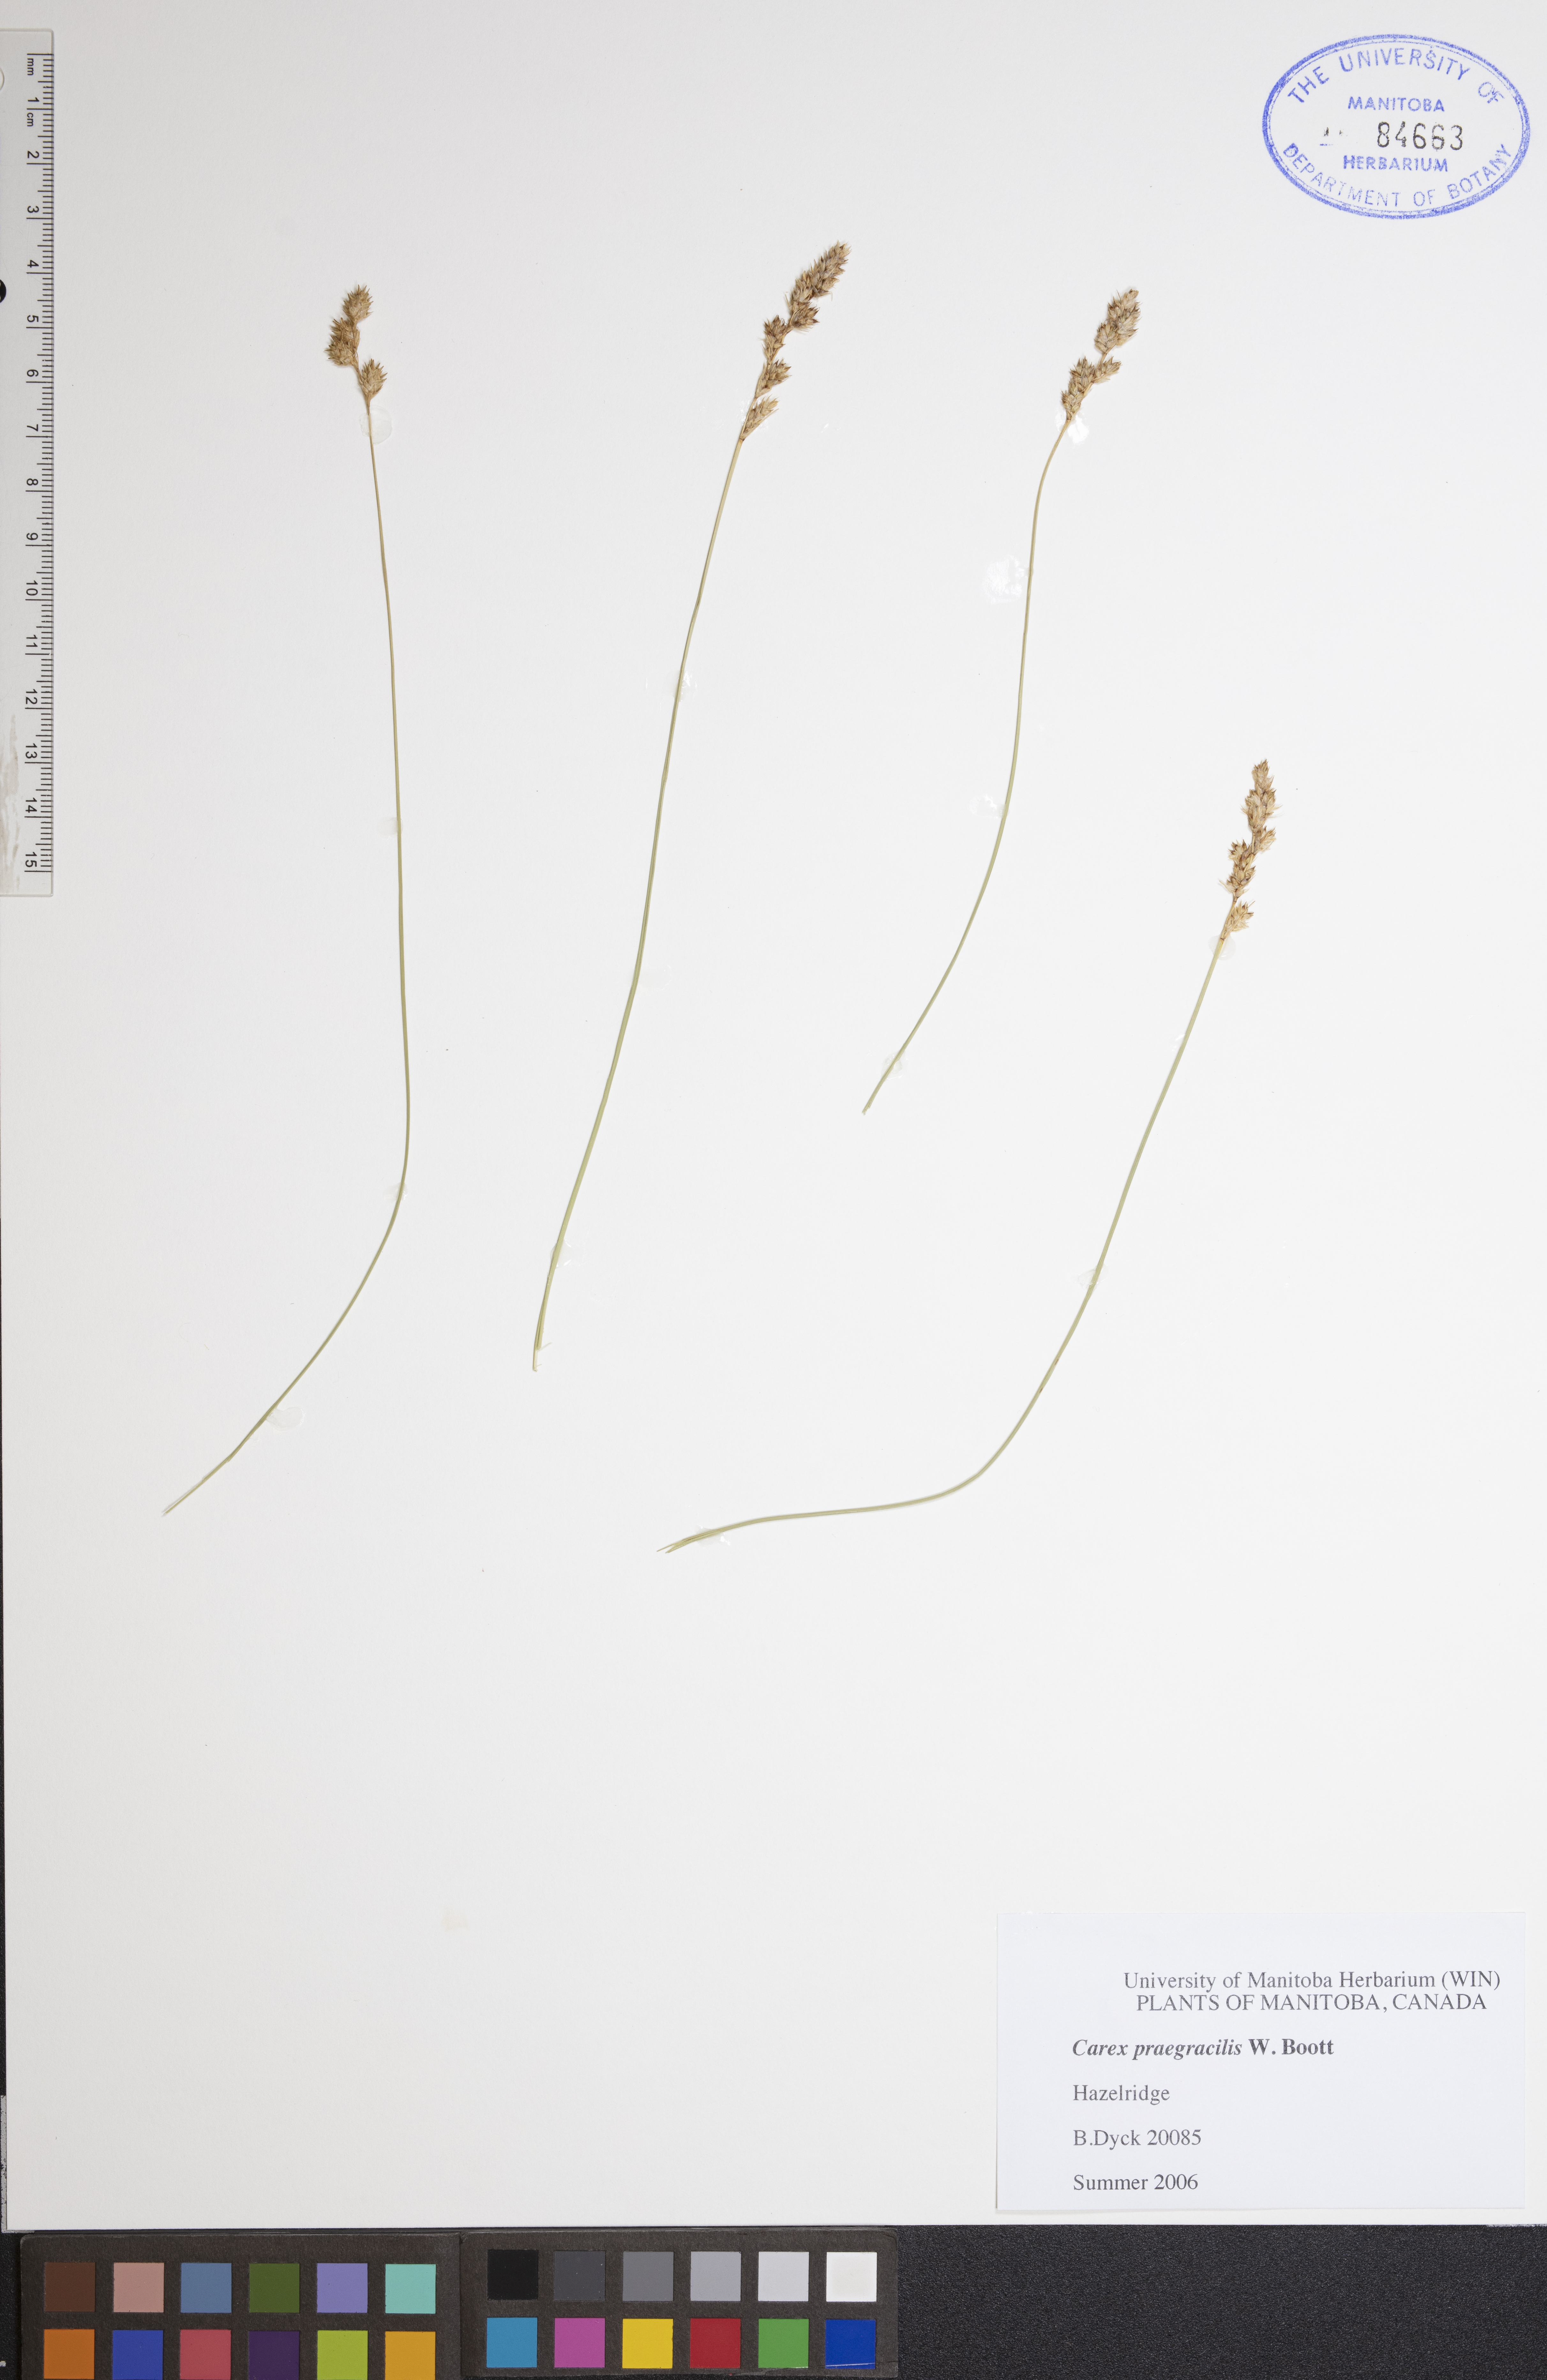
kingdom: Plantae
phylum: Tracheophyta
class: Liliopsida
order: Poales
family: Cyperaceae
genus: Carex
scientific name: Carex praegracilis
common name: Black creeper sedge
